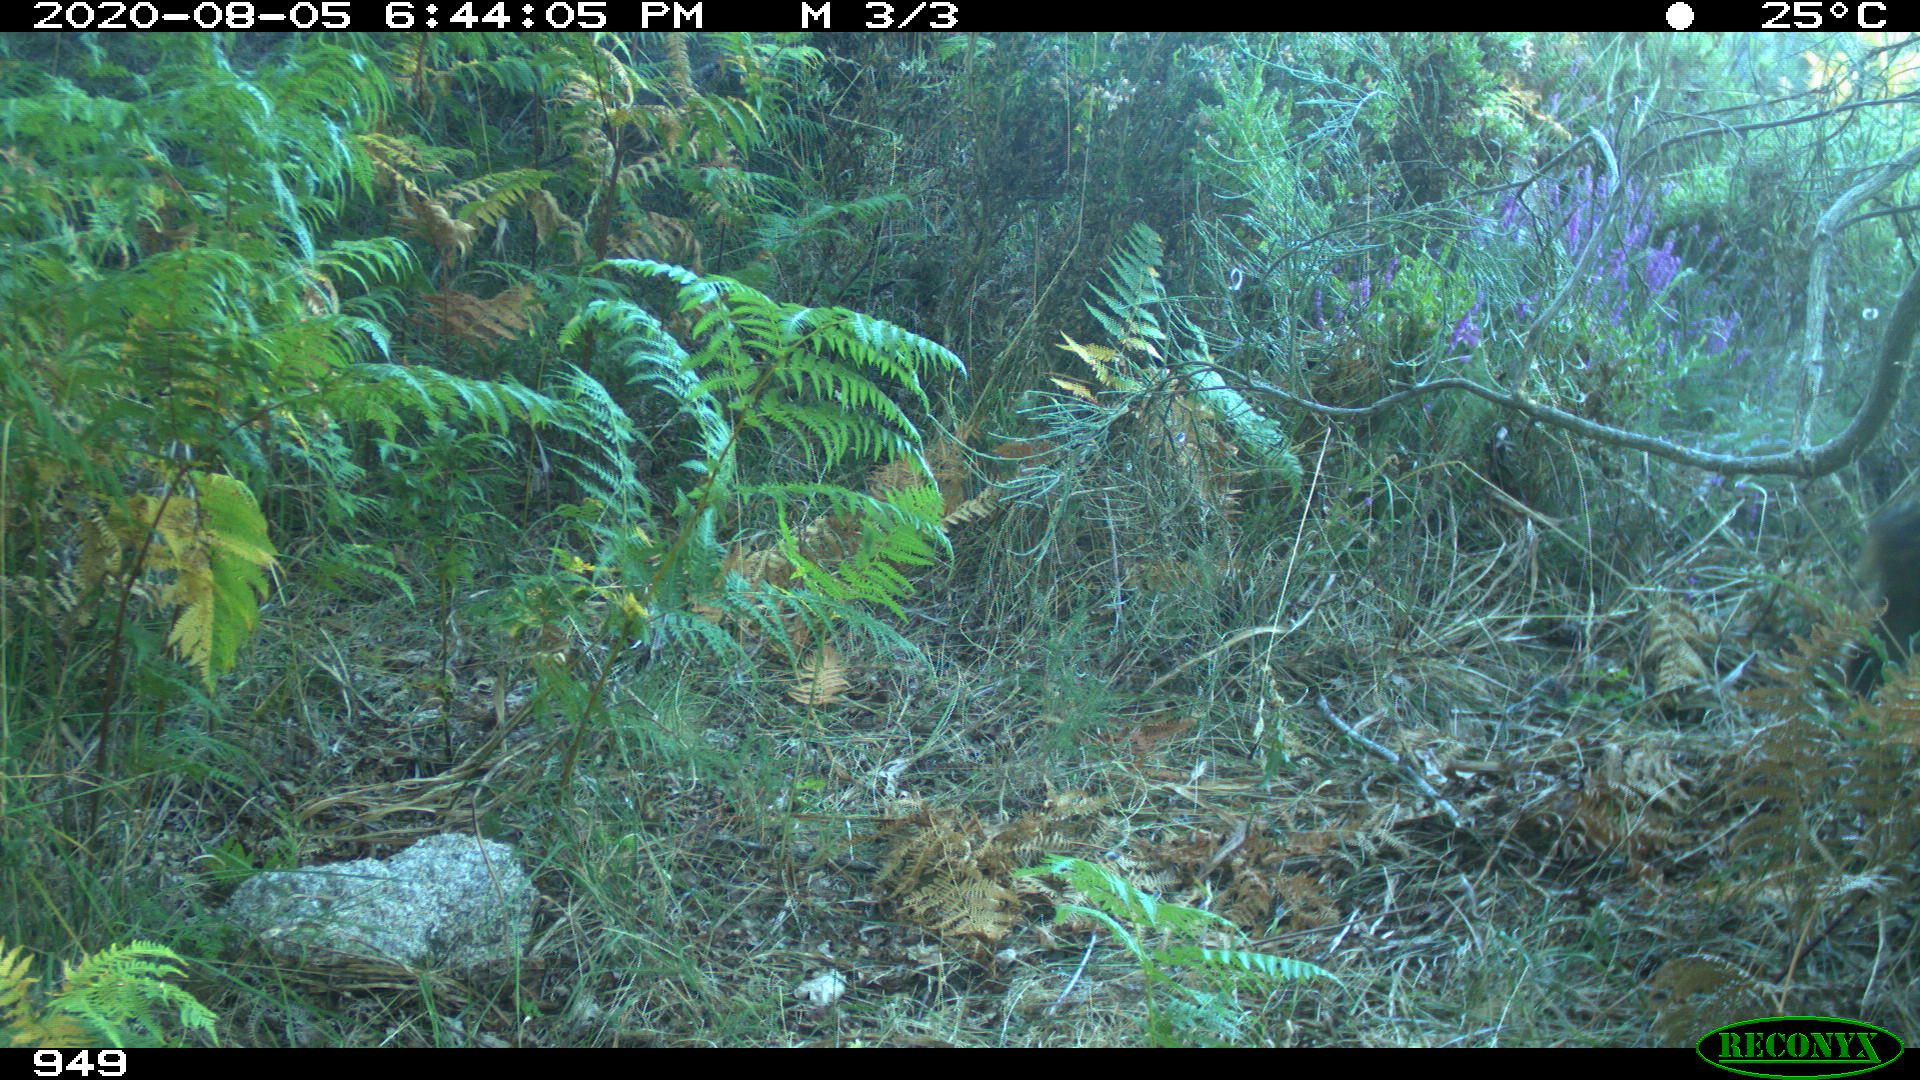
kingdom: Animalia
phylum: Chordata
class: Mammalia
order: Artiodactyla
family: Suidae
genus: Sus
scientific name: Sus scrofa
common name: Wild boar
